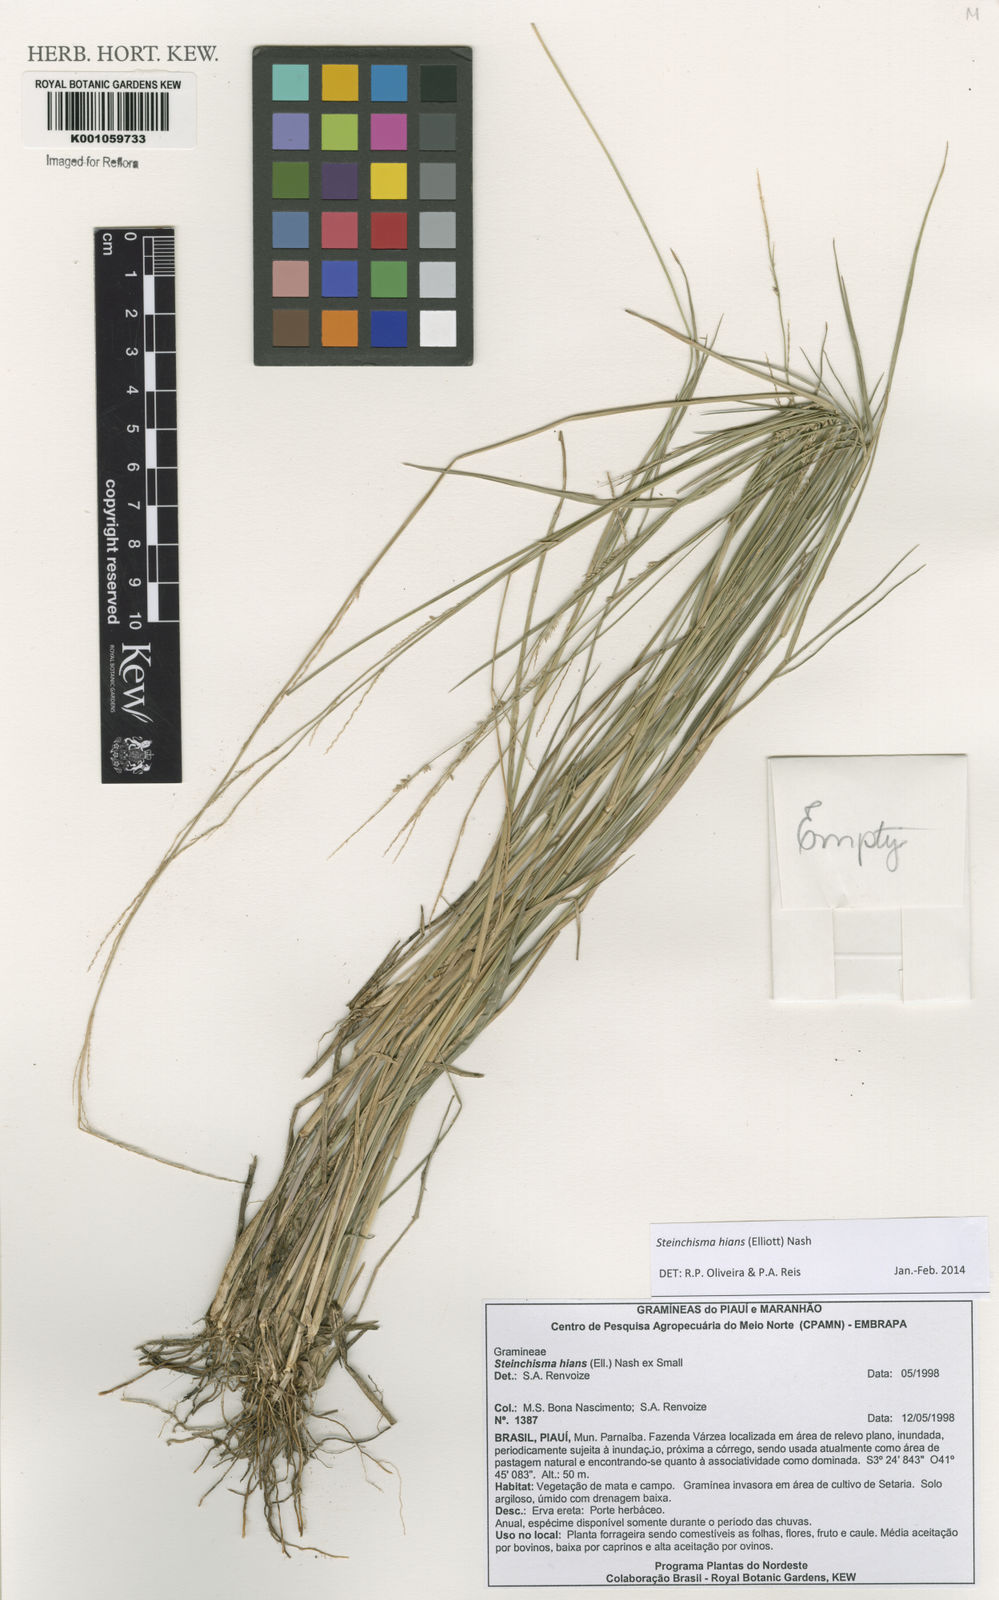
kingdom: Plantae
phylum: Tracheophyta
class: Liliopsida
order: Poales
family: Poaceae
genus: Steinchisma
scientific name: Steinchisma hians
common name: Gaping panic grass
